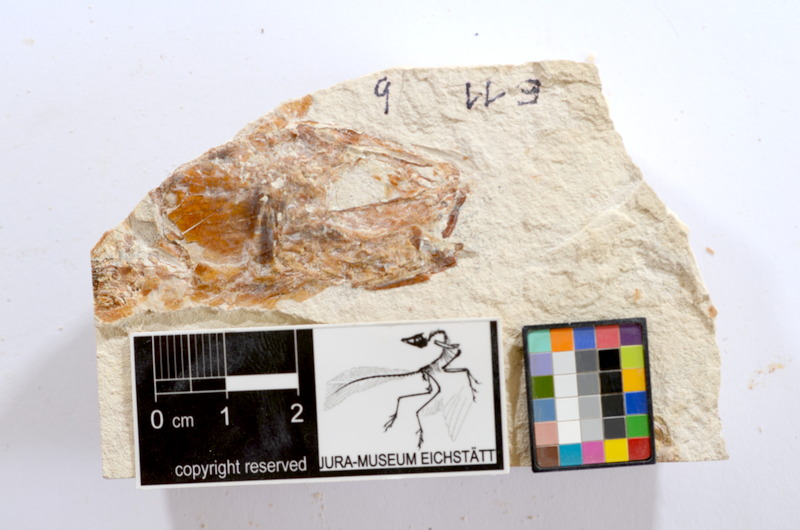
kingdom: Animalia
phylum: Chordata
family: Ascalaboidae
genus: Tharsis
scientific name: Tharsis dubius
